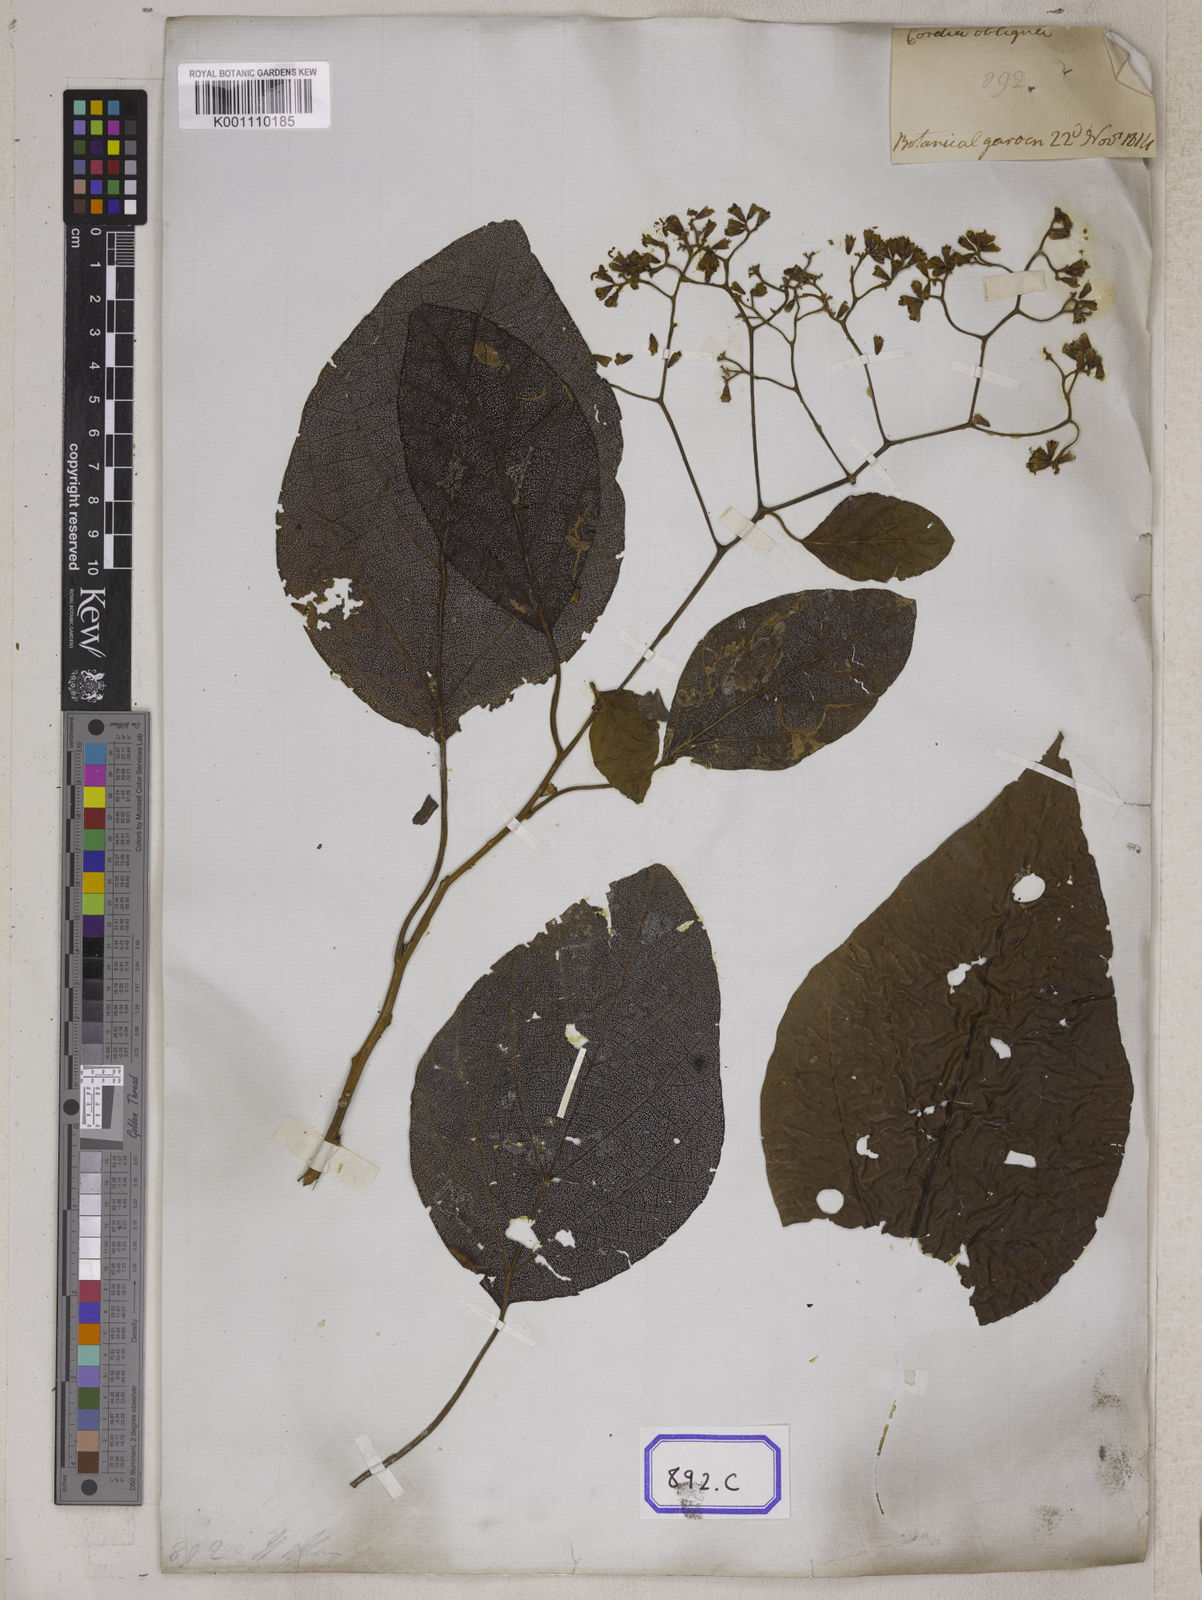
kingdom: Plantae
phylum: Tracheophyta
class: Magnoliopsida
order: Boraginales
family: Cordiaceae
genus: Cordia
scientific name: Cordia
